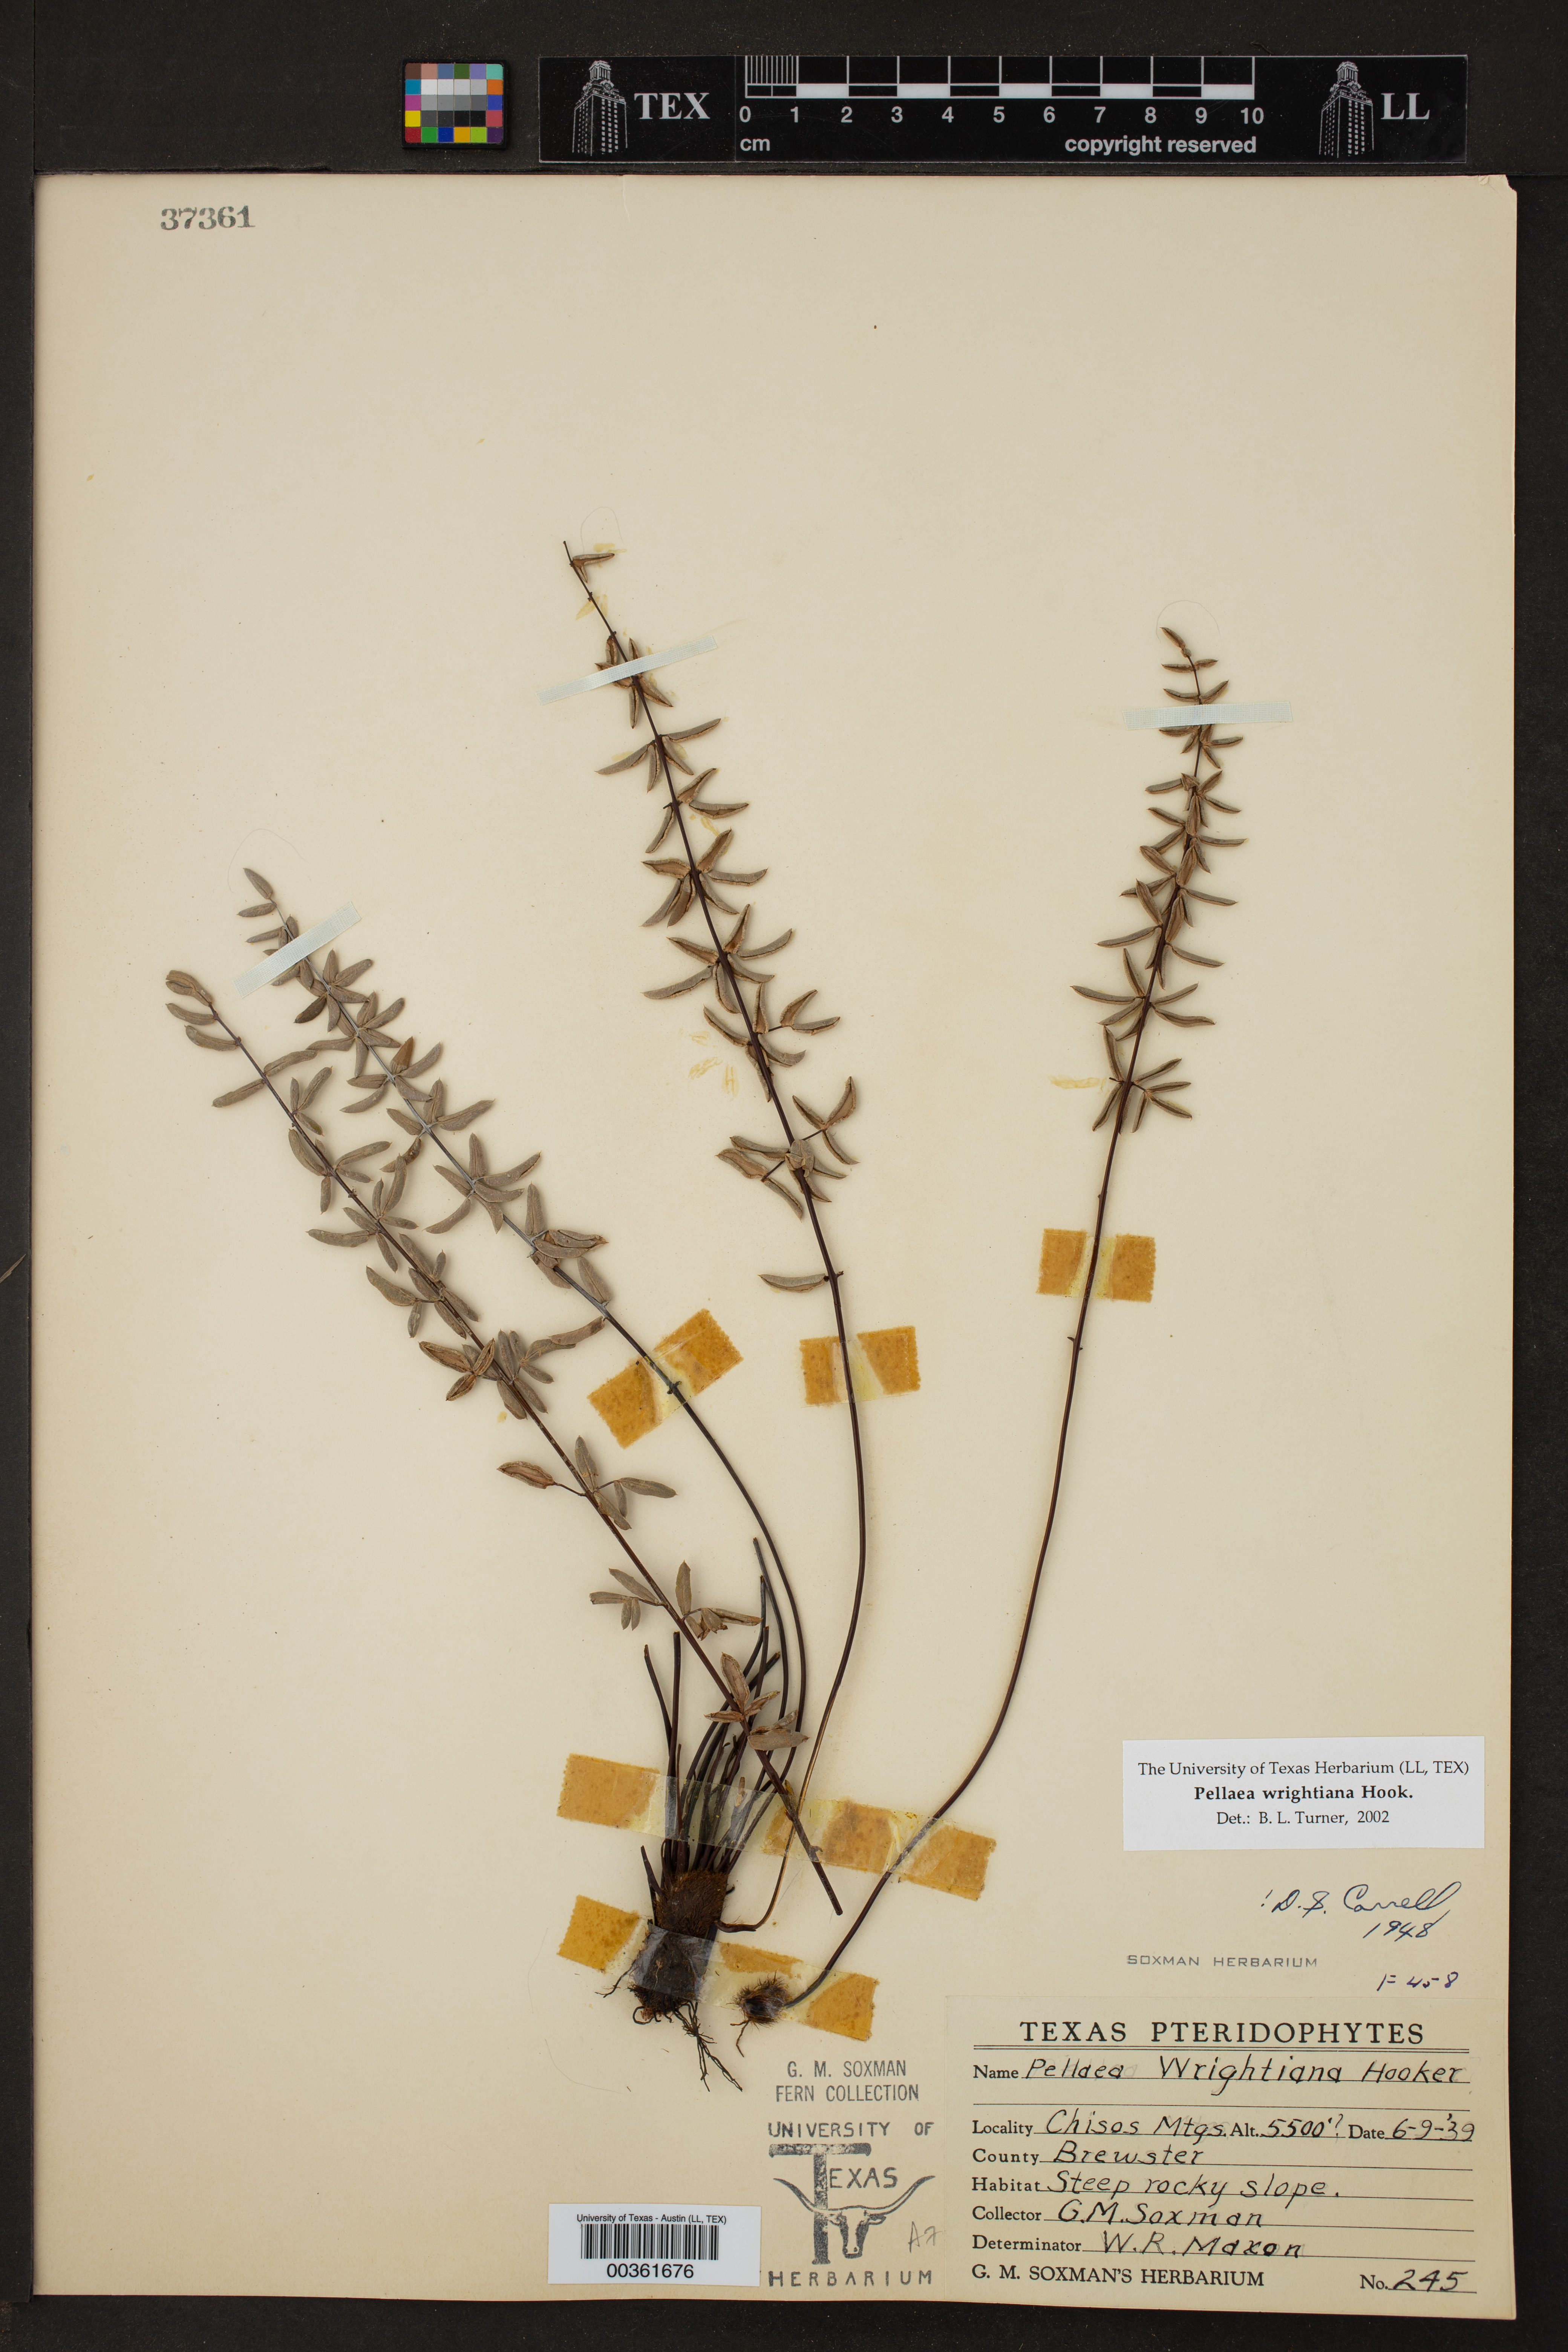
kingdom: Plantae
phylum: Tracheophyta
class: Polypodiopsida
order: Polypodiales
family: Pteridaceae
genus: Pellaea
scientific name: Pellaea wrightiana
